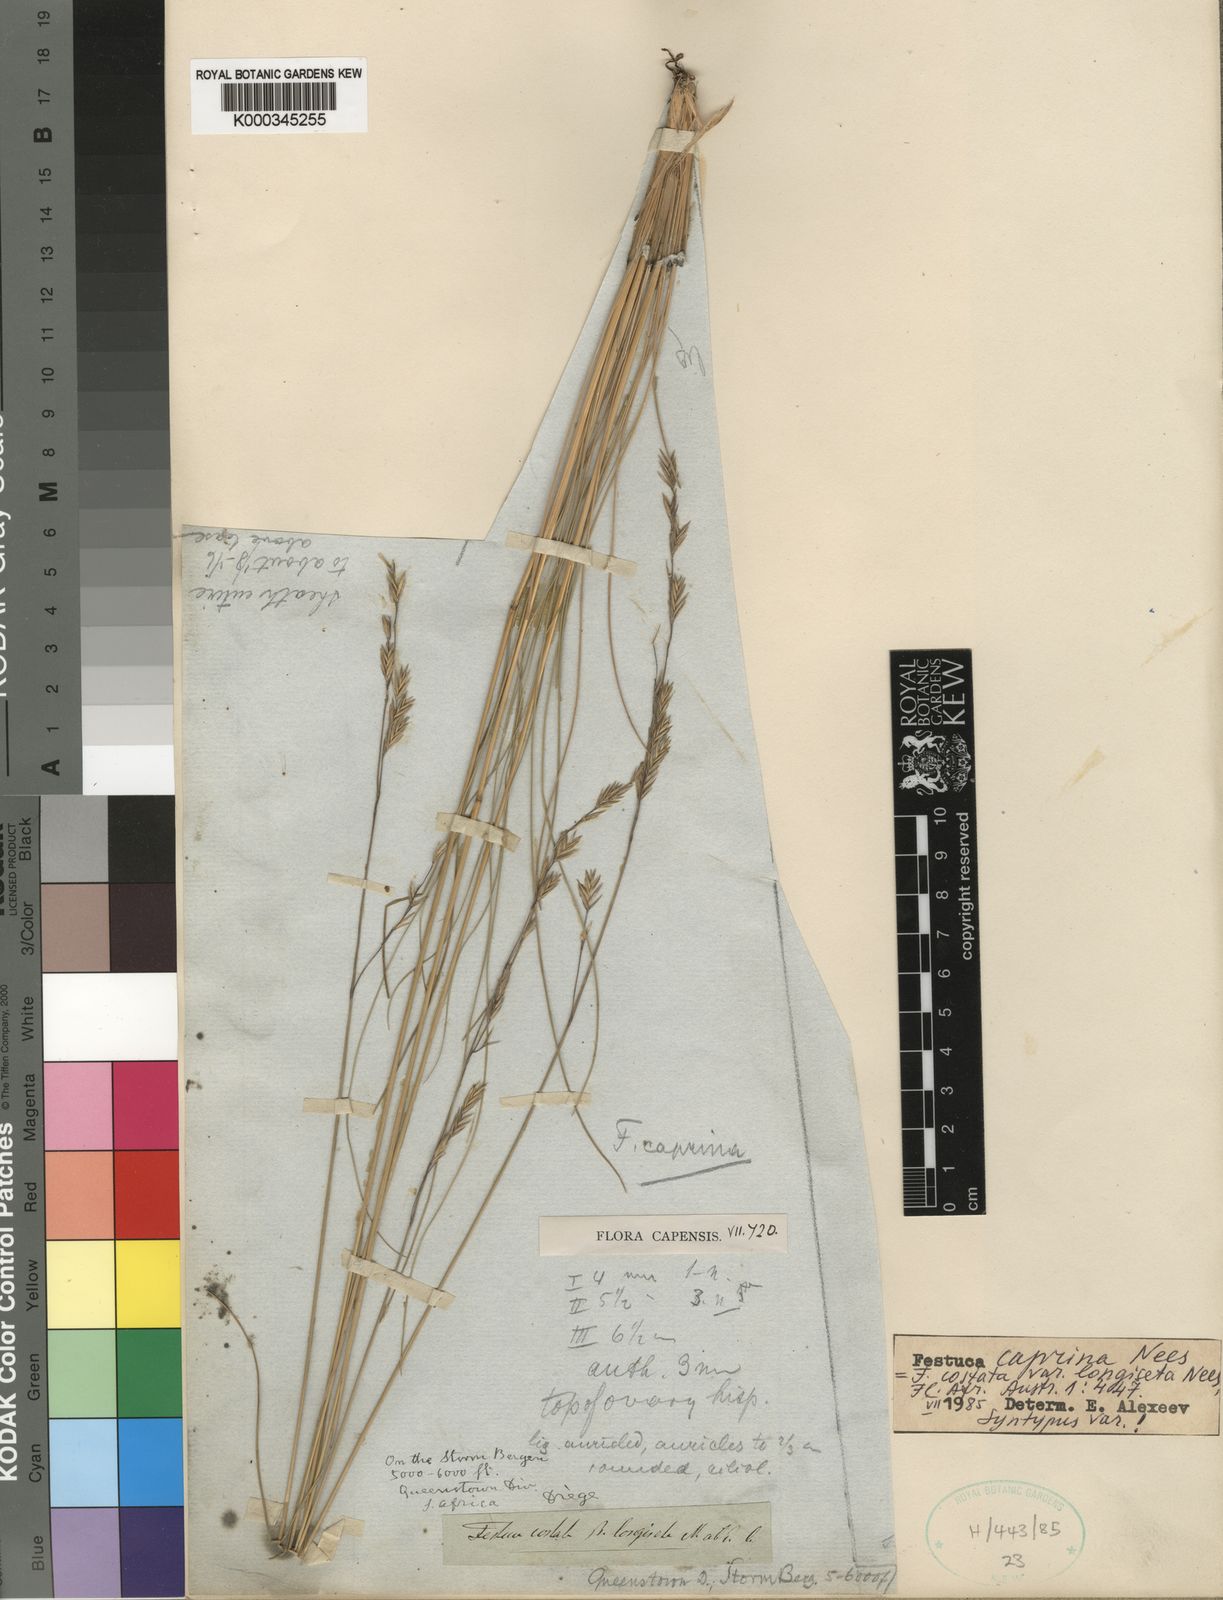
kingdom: Plantae
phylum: Tracheophyta
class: Liliopsida
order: Poales
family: Poaceae
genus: Festuca
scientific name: Festuca caprina
